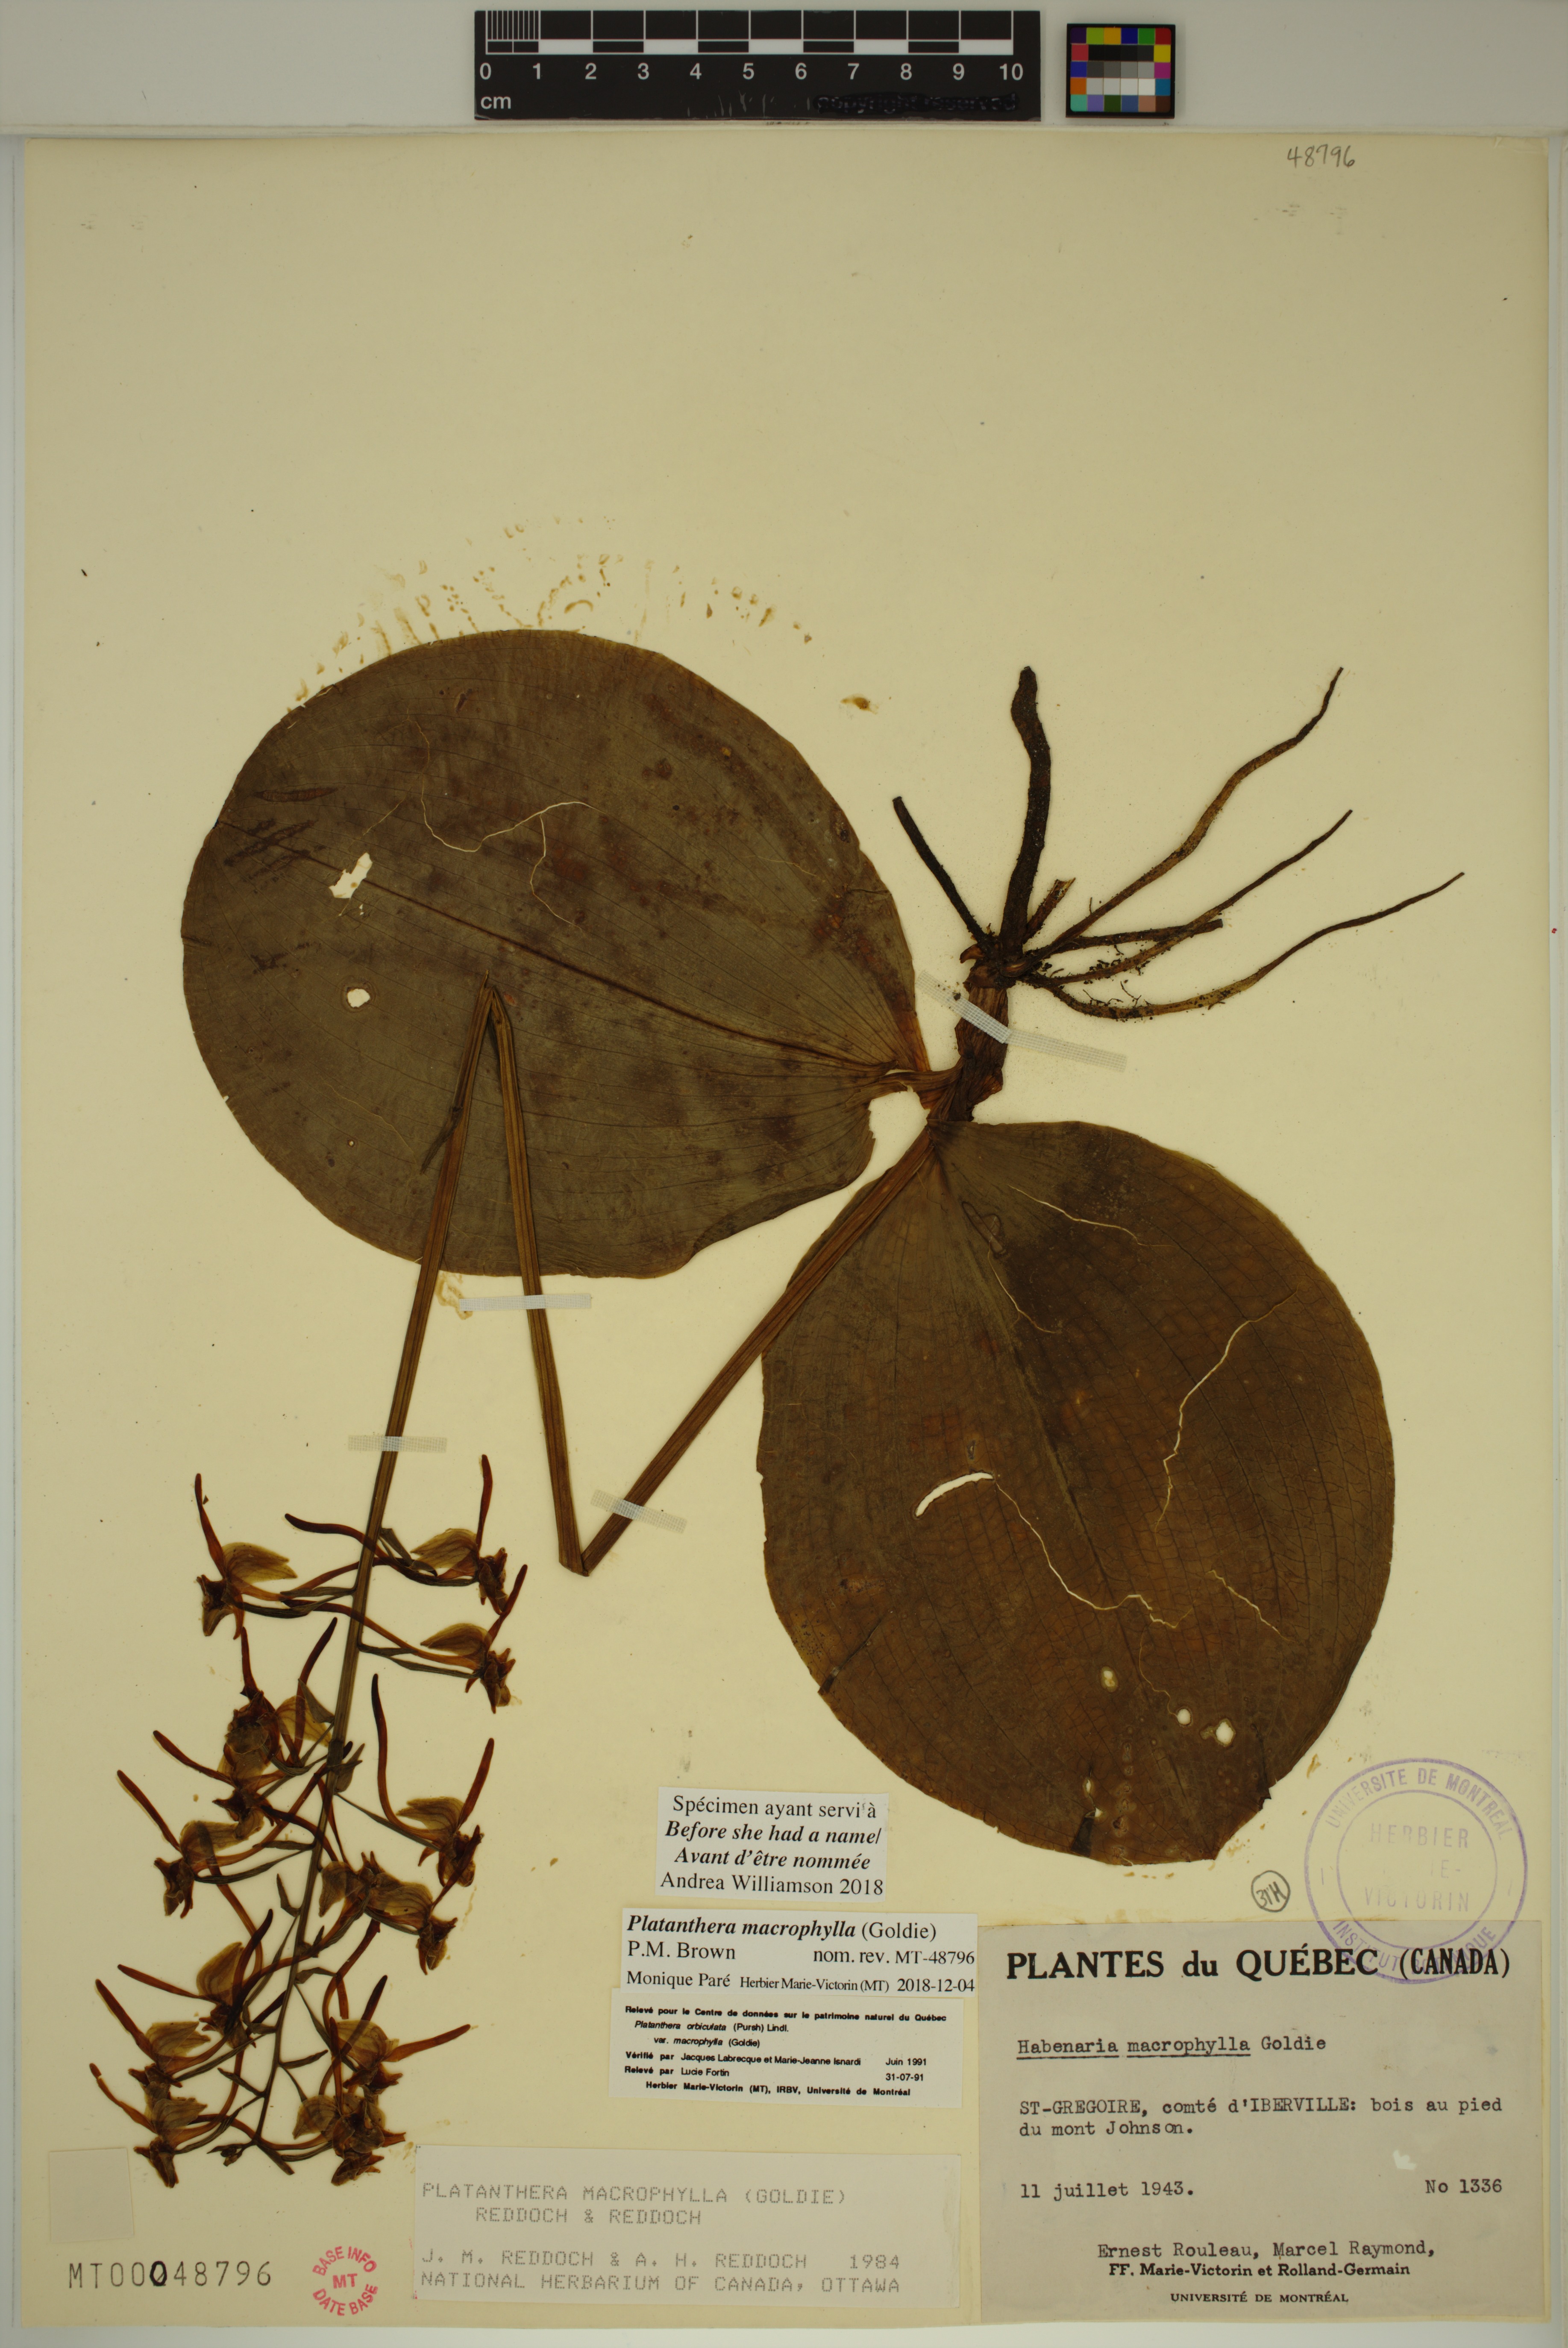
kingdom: Plantae
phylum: Tracheophyta
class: Liliopsida
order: Asparagales
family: Orchidaceae
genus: Platanthera
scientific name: Platanthera orbiculata
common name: Large round-leaved orchid
